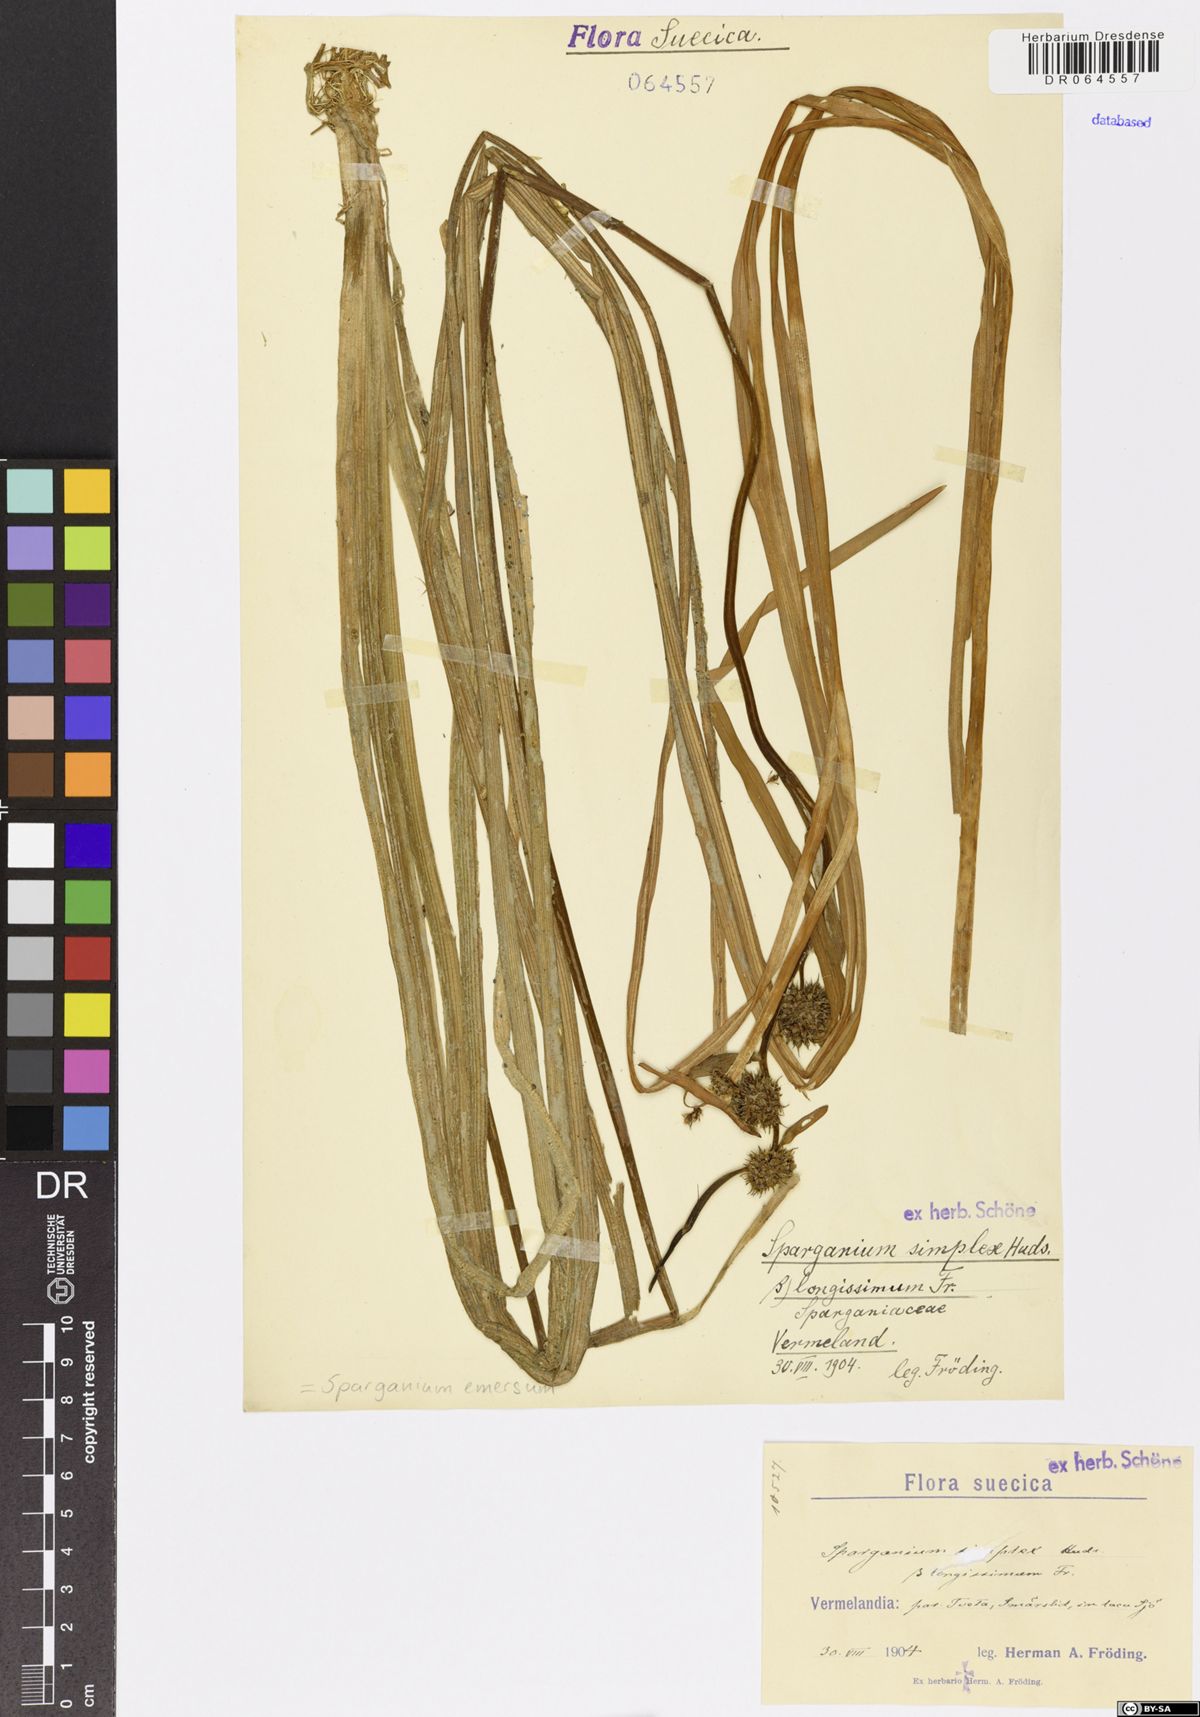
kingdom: Plantae
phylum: Tracheophyta
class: Liliopsida
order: Poales
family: Typhaceae
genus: Sparganium
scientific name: Sparganium emersum
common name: Unbranched bur-reed
